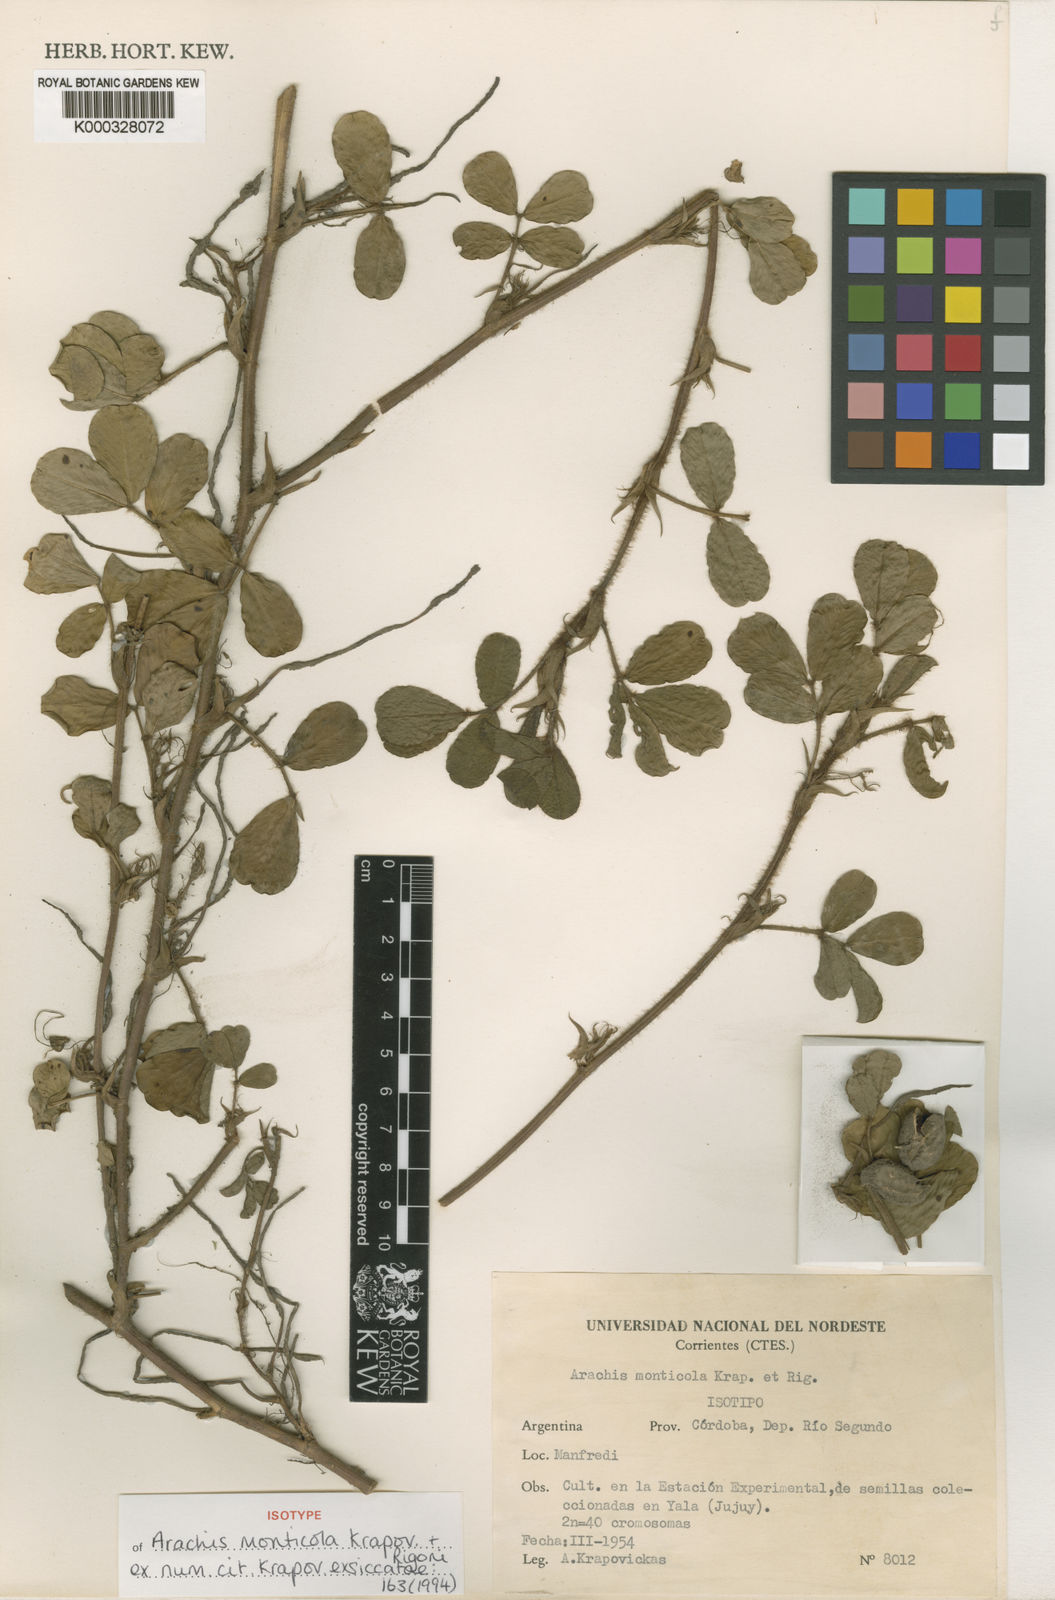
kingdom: Plantae
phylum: Tracheophyta
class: Magnoliopsida
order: Fabales
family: Fabaceae
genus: Arachis
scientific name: Arachis monticola
